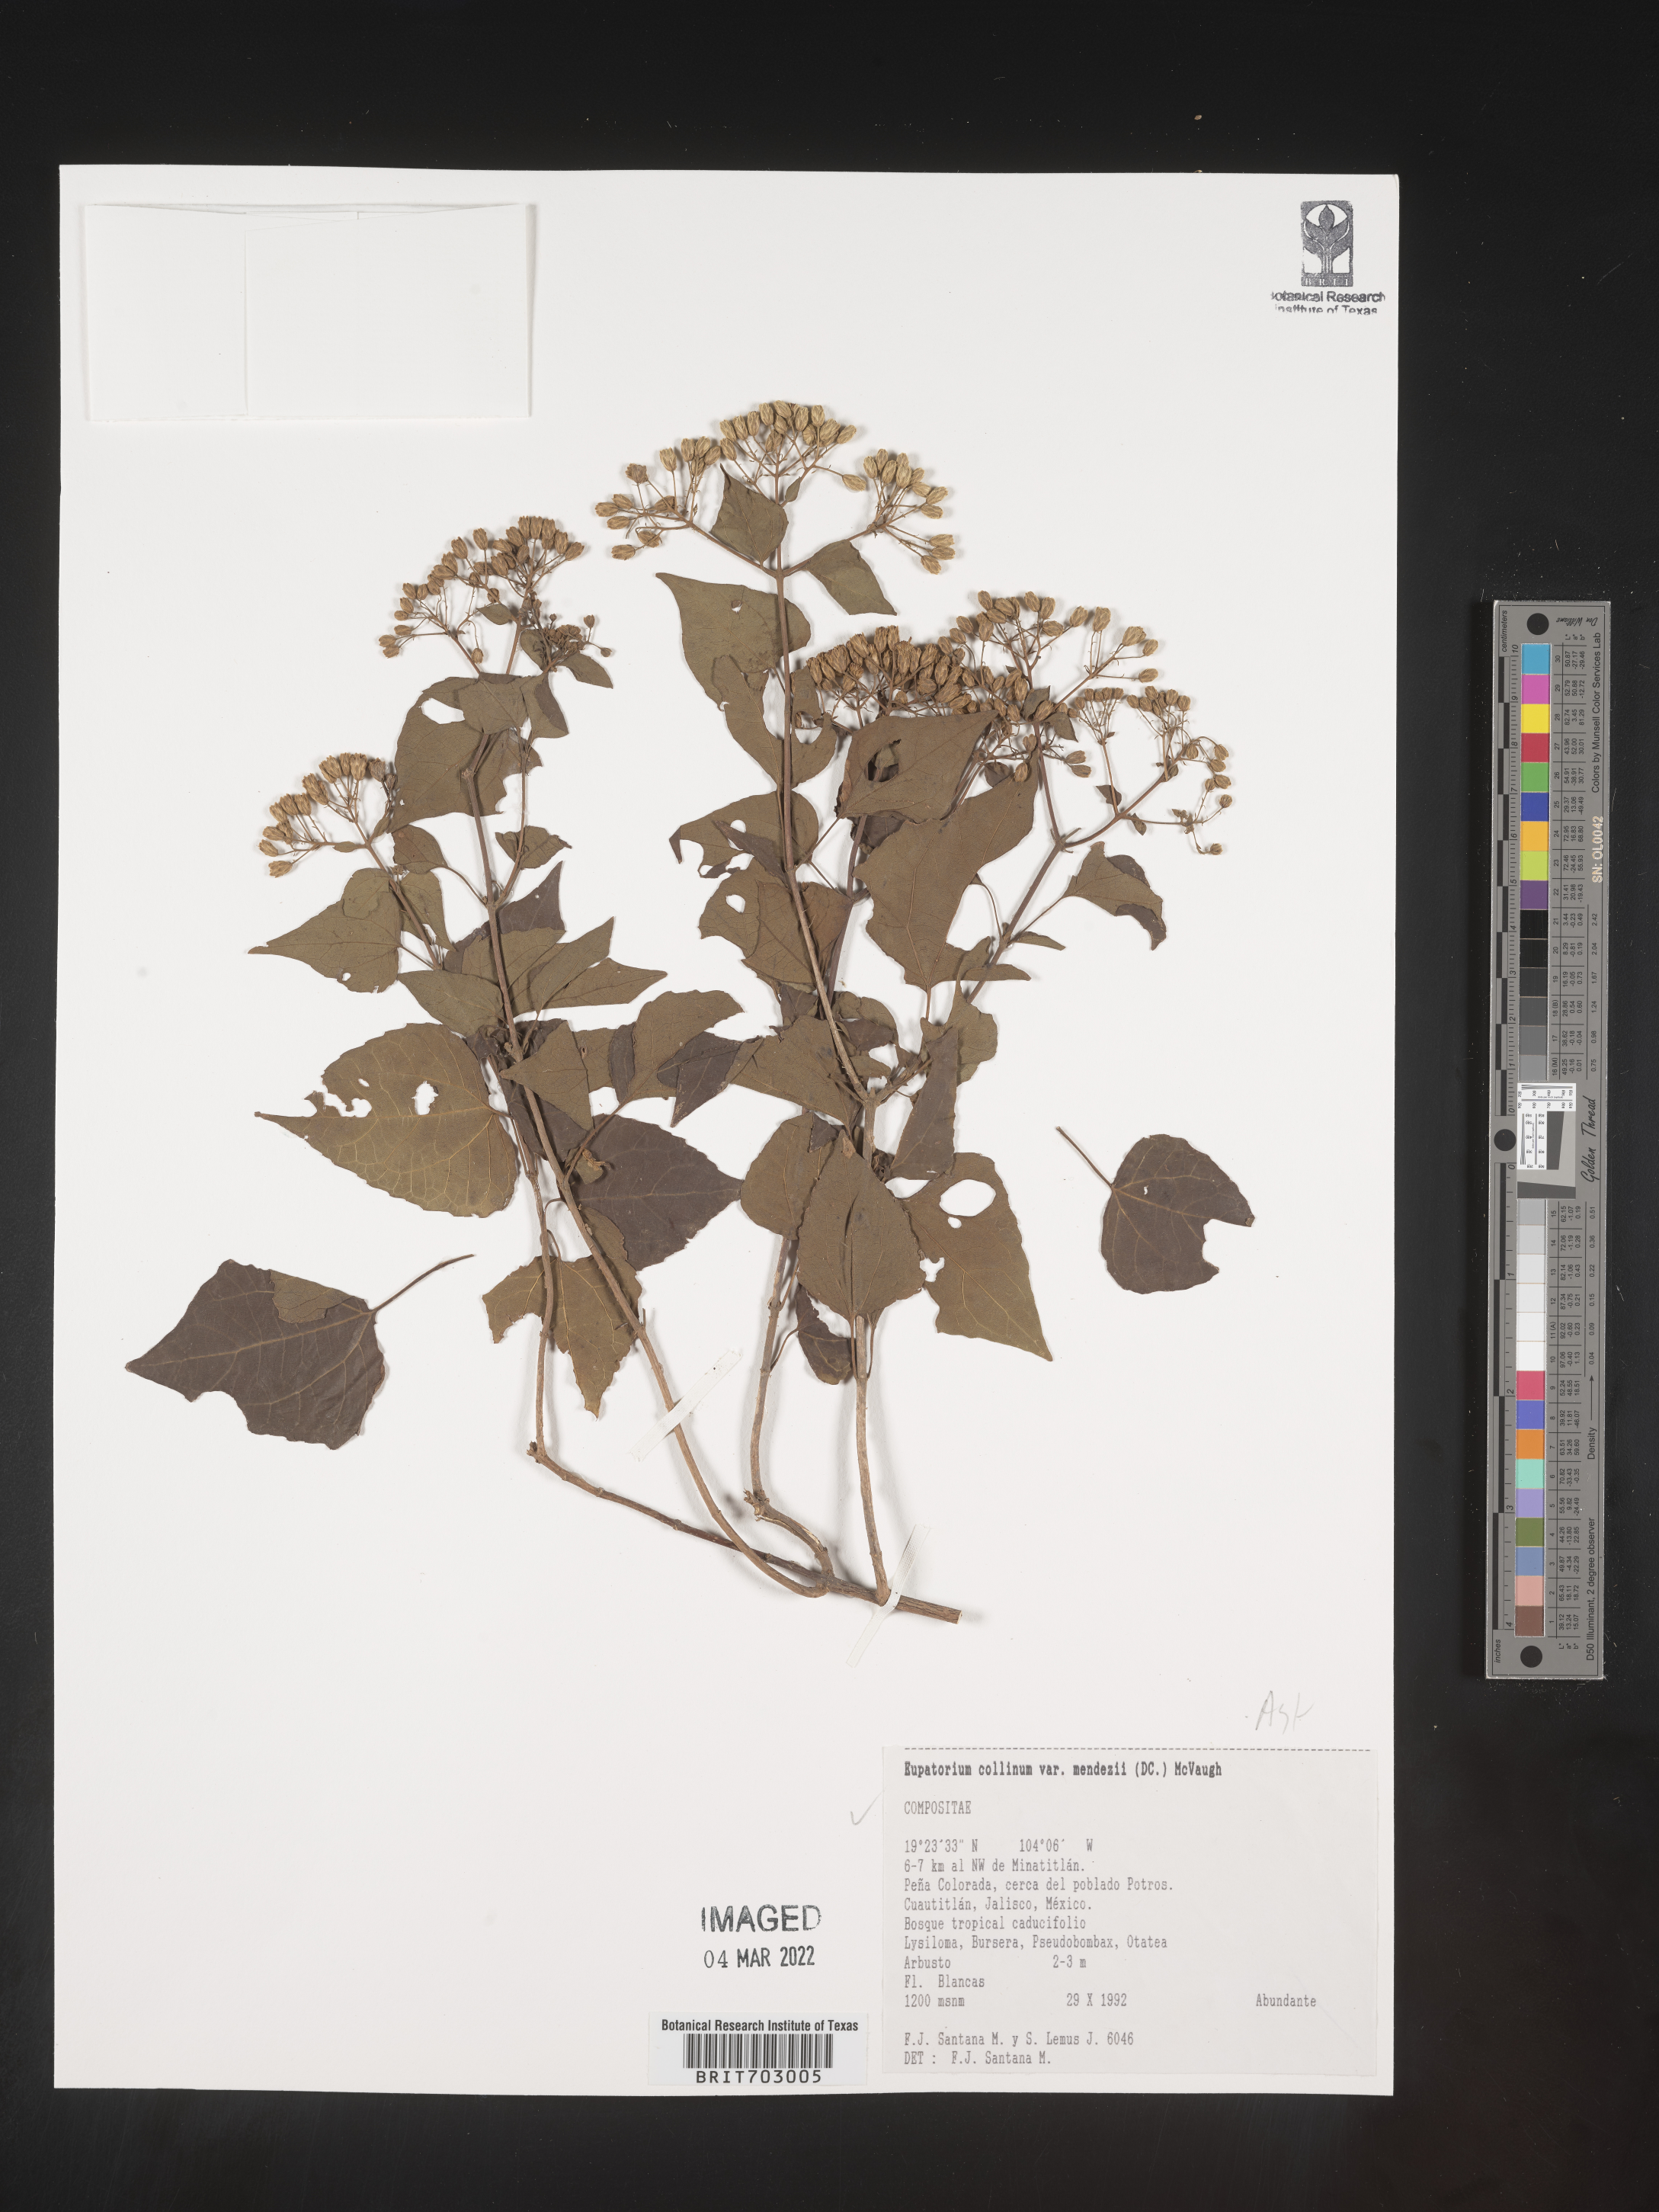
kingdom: Plantae
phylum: Tracheophyta
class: Magnoliopsida
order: Asterales
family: Asteraceae
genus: Eupatorium
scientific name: Eupatorium
